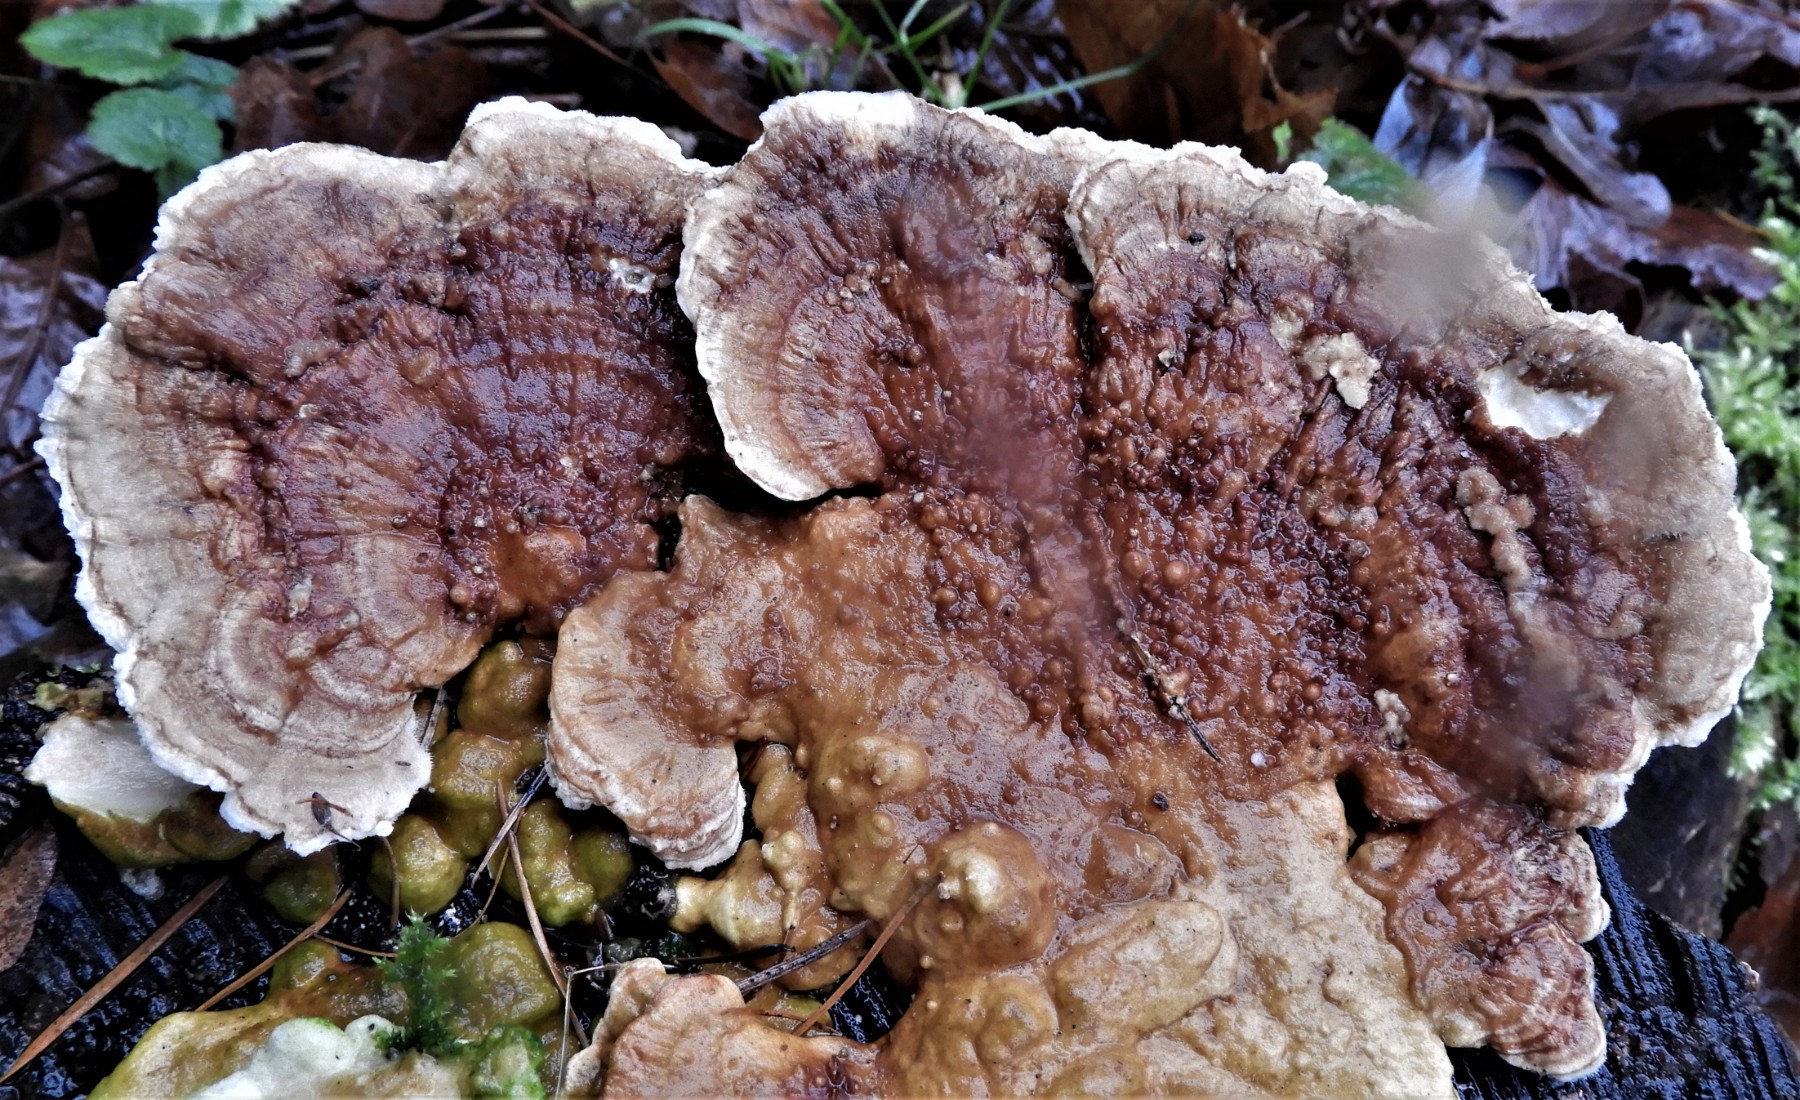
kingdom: Fungi
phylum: Basidiomycota
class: Agaricomycetes
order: Polyporales
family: Polyporaceae
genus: Trametes
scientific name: Trametes ochracea
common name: bæltet læderporesvamp
